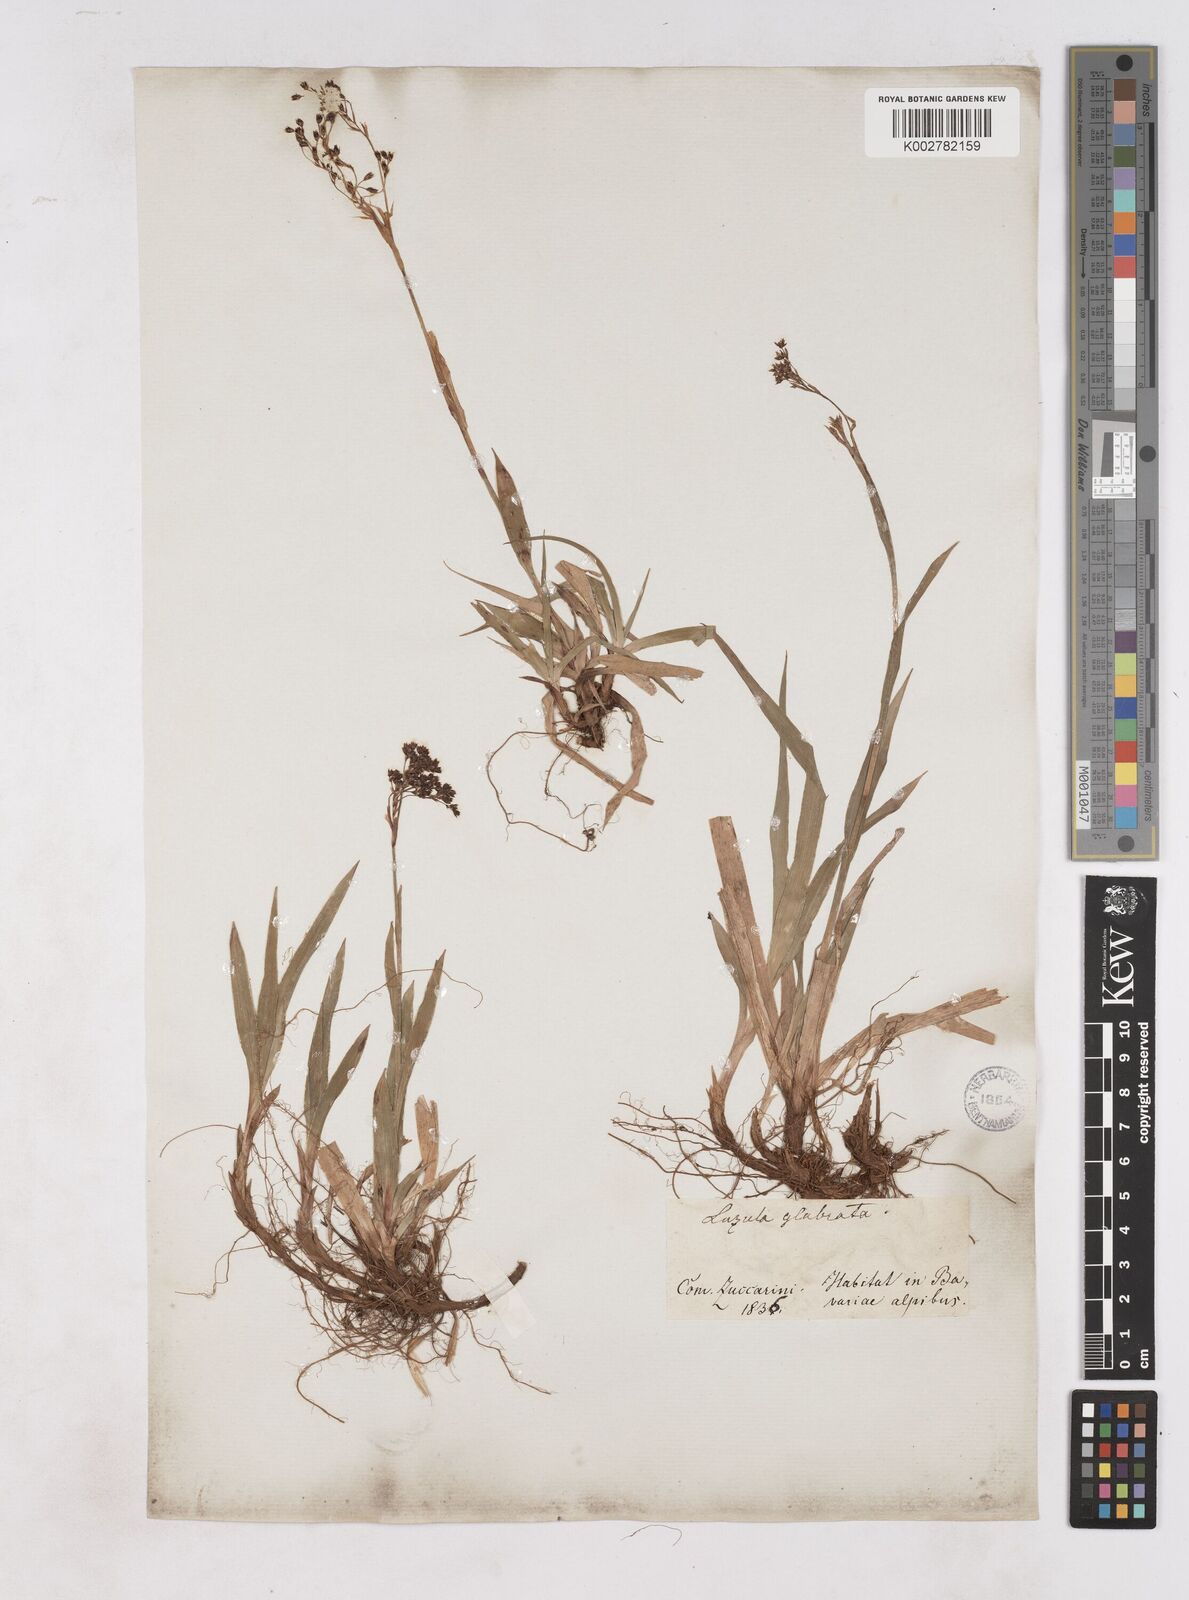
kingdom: Plantae
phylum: Tracheophyta
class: Liliopsida
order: Poales
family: Juncaceae
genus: Luzula
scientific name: Luzula glabrata
